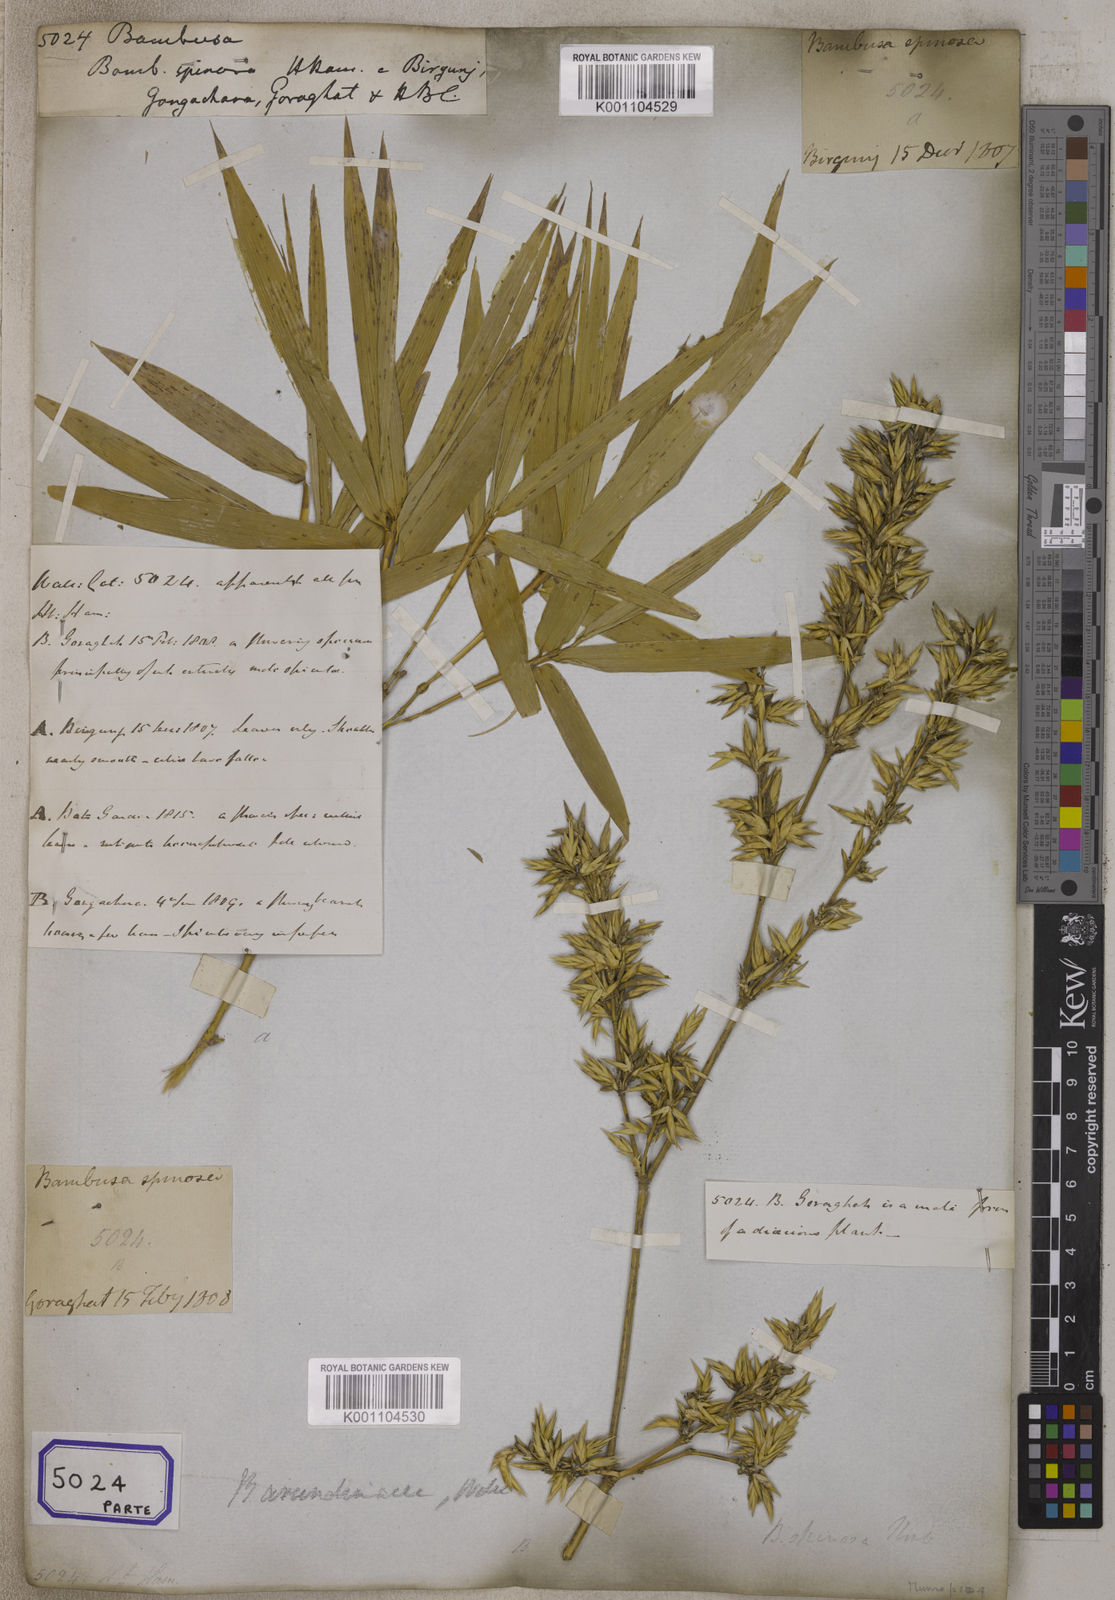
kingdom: Plantae
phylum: Tracheophyta
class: Liliopsida
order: Poales
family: Poaceae
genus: Bambusa
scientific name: Bambusa
